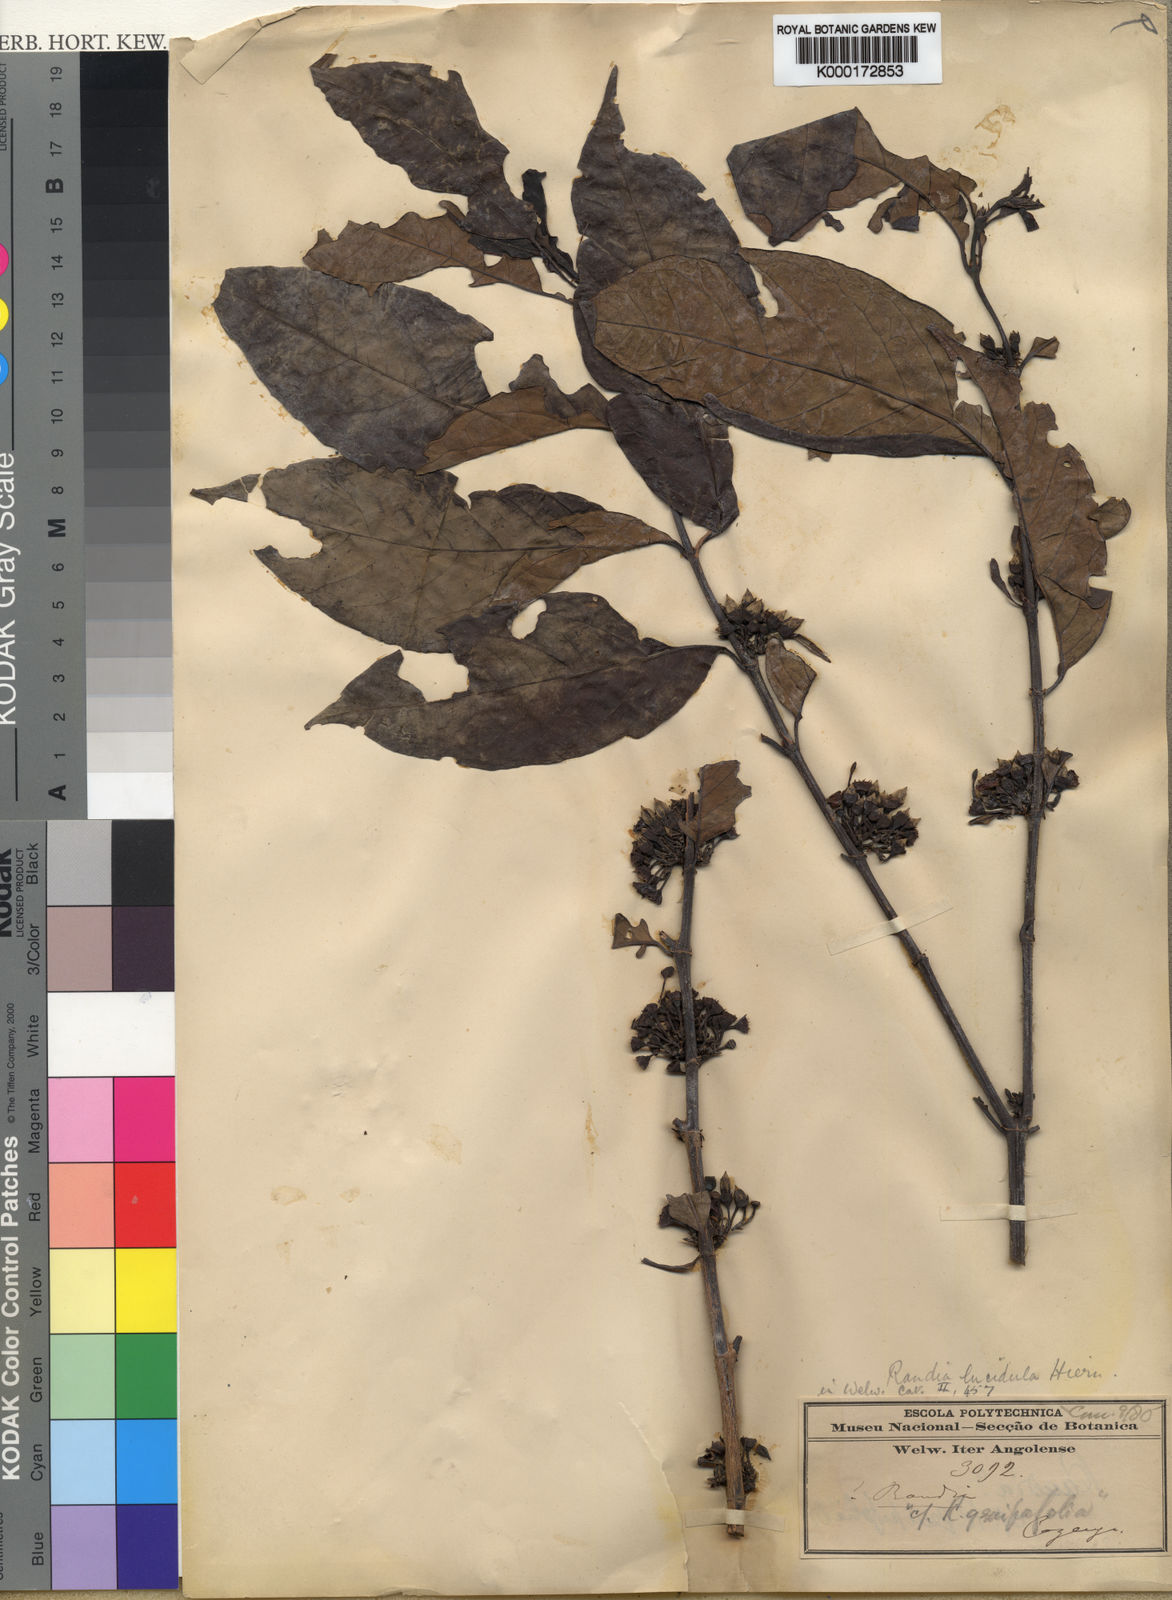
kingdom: Plantae
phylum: Tracheophyta
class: Magnoliopsida
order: Gentianales
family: Rubiaceae
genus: Aidia
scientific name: Aidia micrantha
